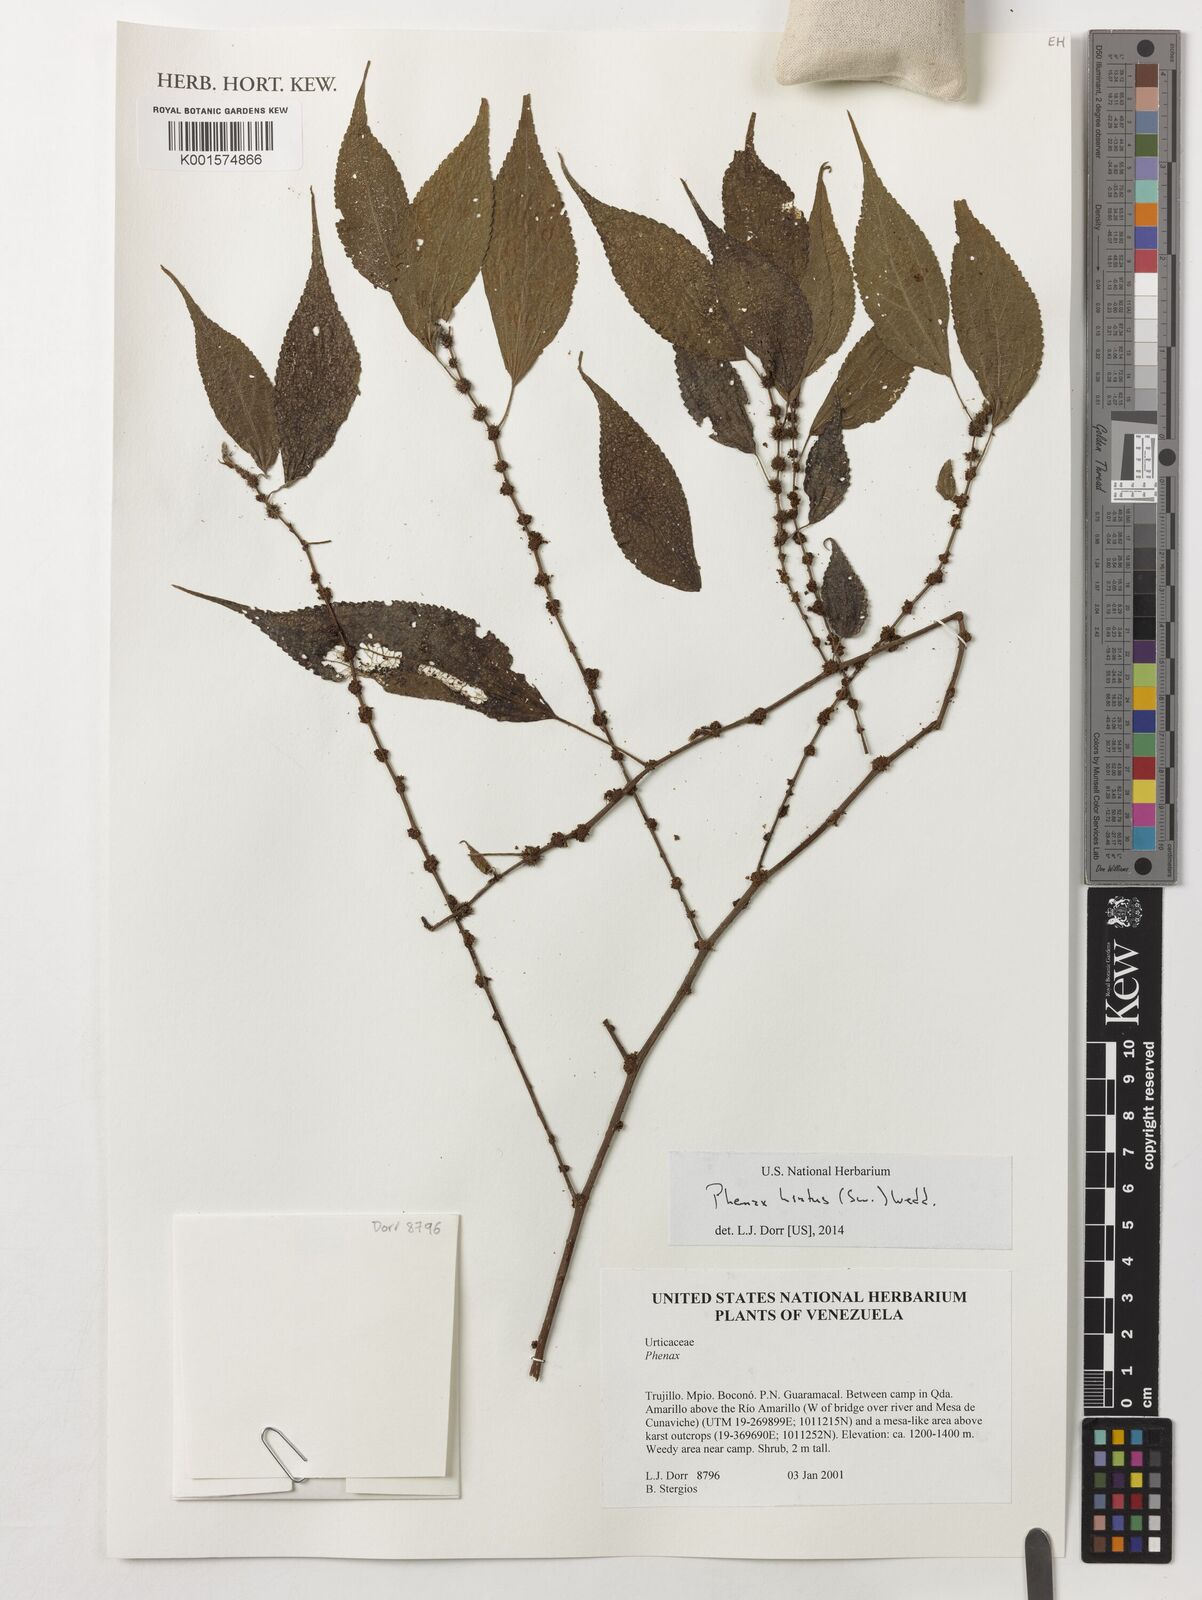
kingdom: Plantae
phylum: Tracheophyta
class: Magnoliopsida
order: Rosales
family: Urticaceae
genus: Phenax
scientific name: Phenax hirtus
